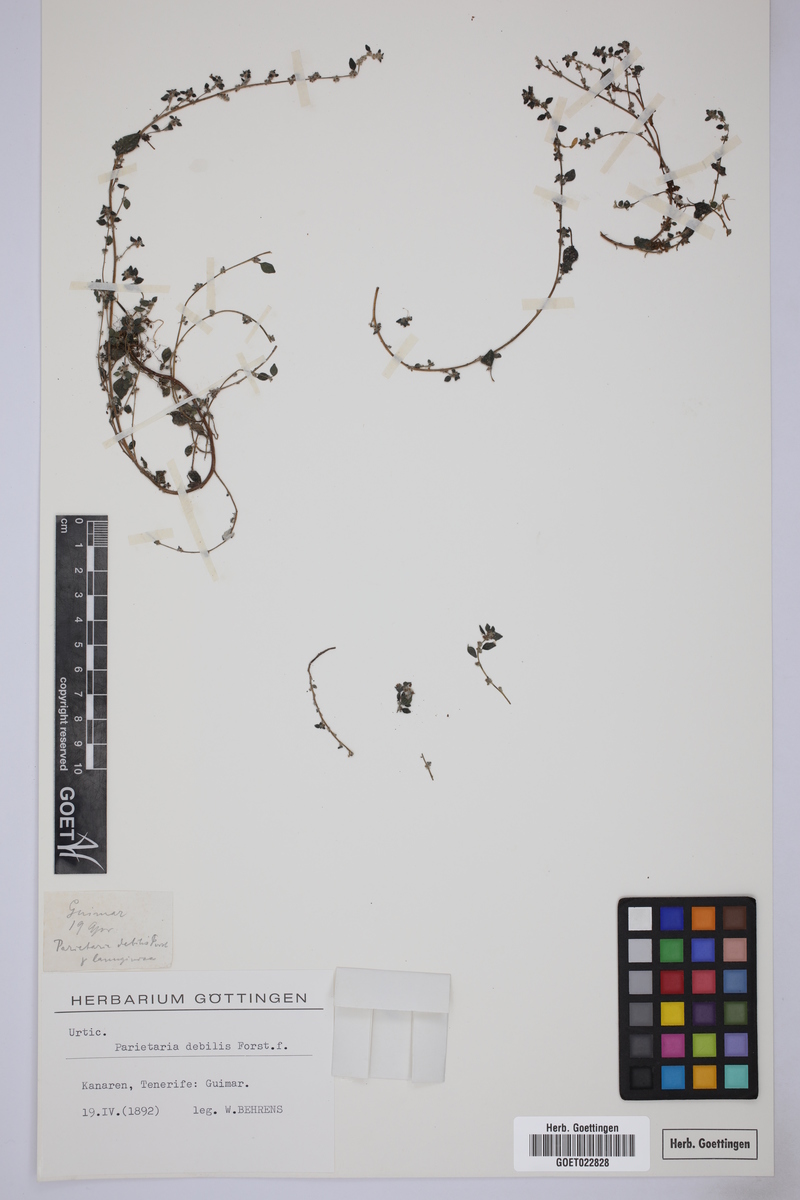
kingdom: Plantae
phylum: Tracheophyta
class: Magnoliopsida
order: Rosales
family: Urticaceae
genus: Parietaria
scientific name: Parietaria debilis
